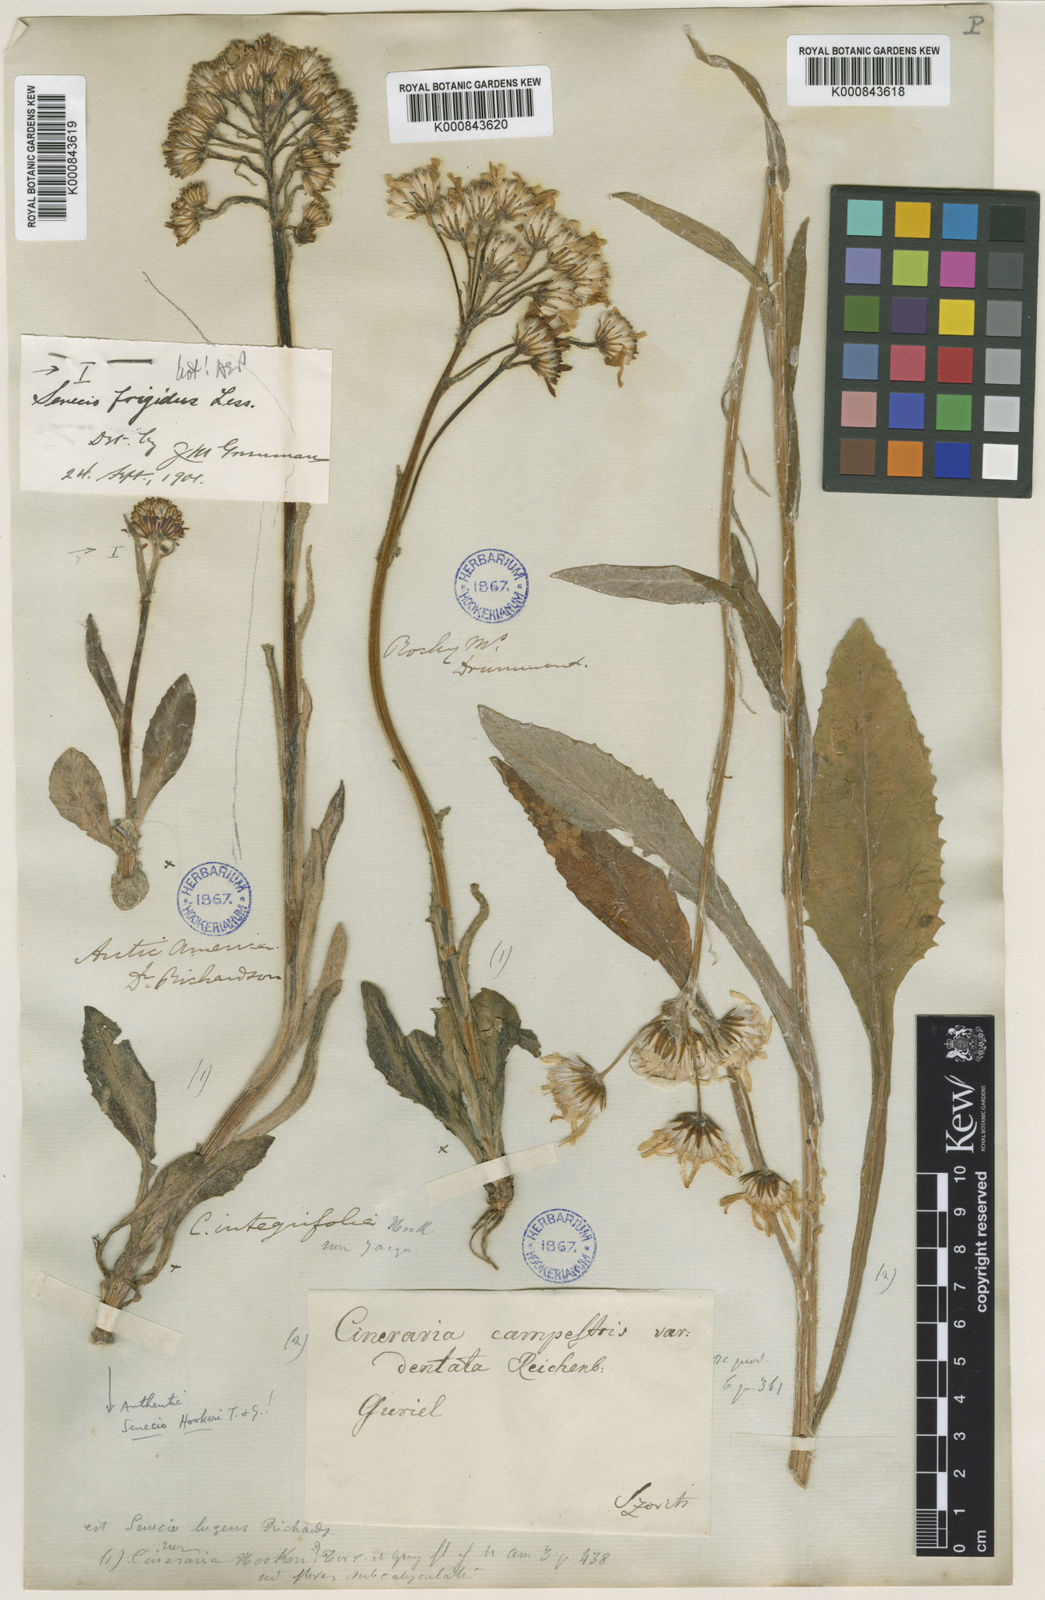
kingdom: Plantae
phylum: Tracheophyta
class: Magnoliopsida
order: Asterales
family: Asteraceae
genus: Senecio
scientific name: Senecio integerrimus
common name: Gaugeplant
